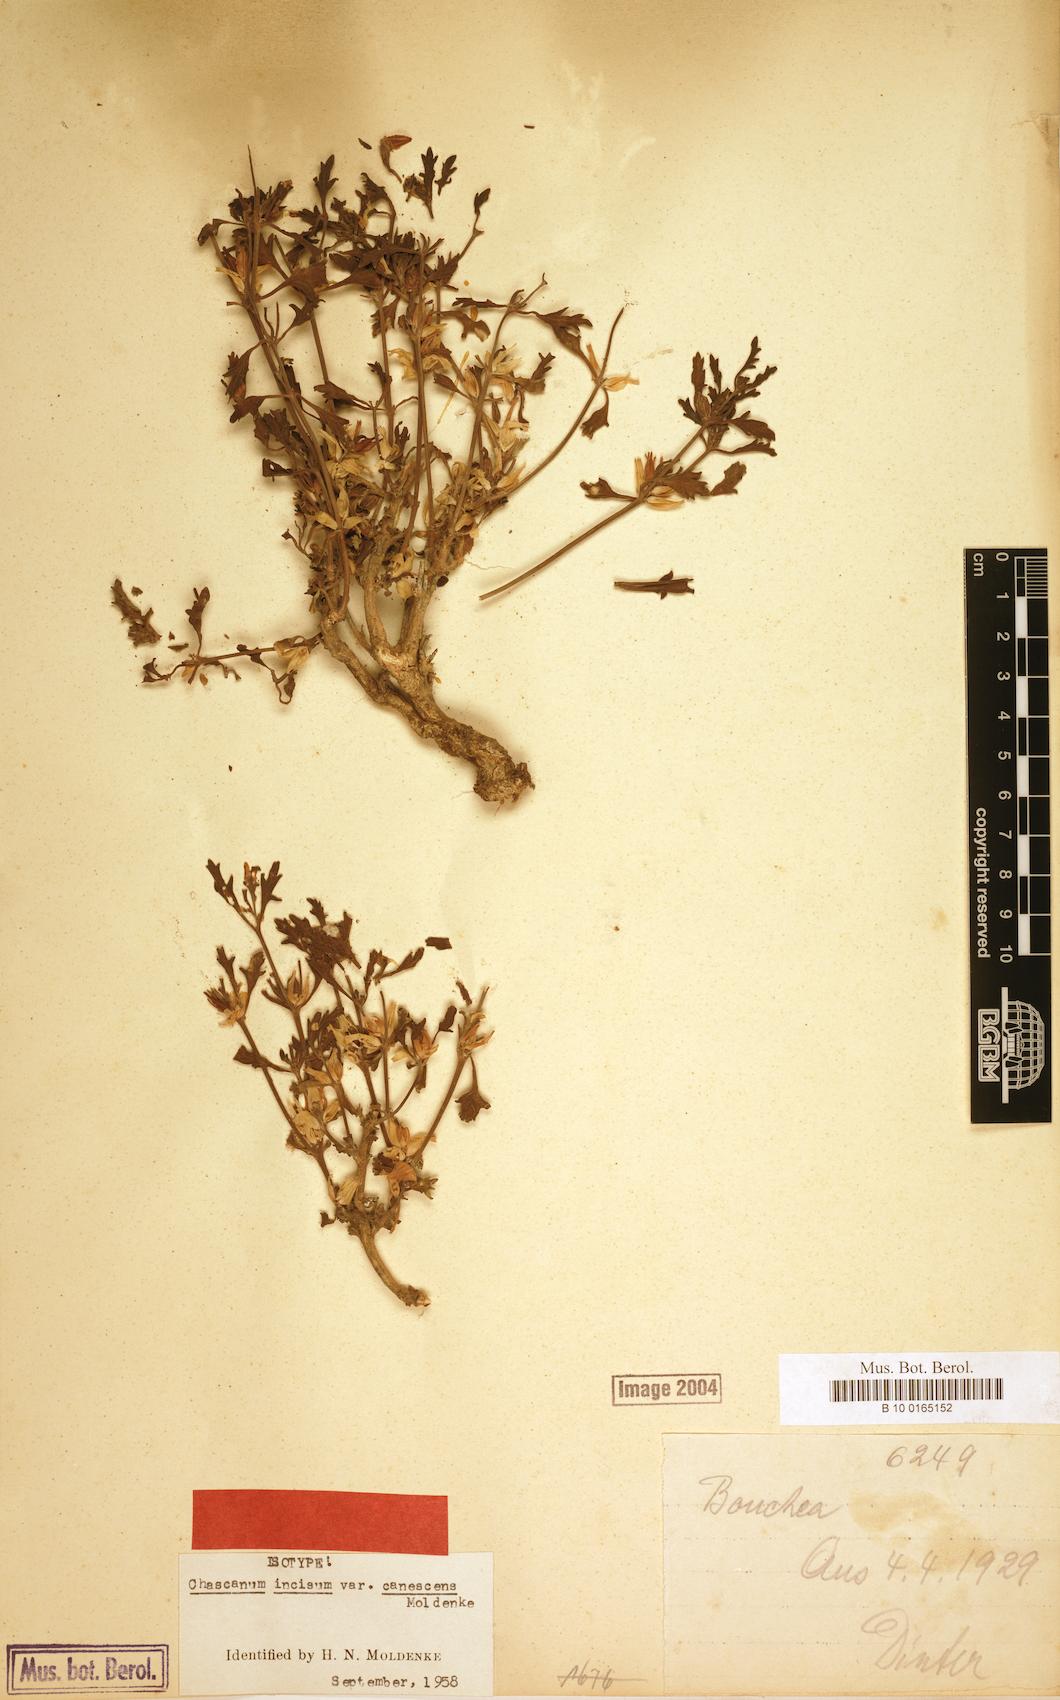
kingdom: Plantae
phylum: Tracheophyta
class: Magnoliopsida
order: Lamiales
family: Verbenaceae
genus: Chascanum
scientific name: Chascanum pumilum
